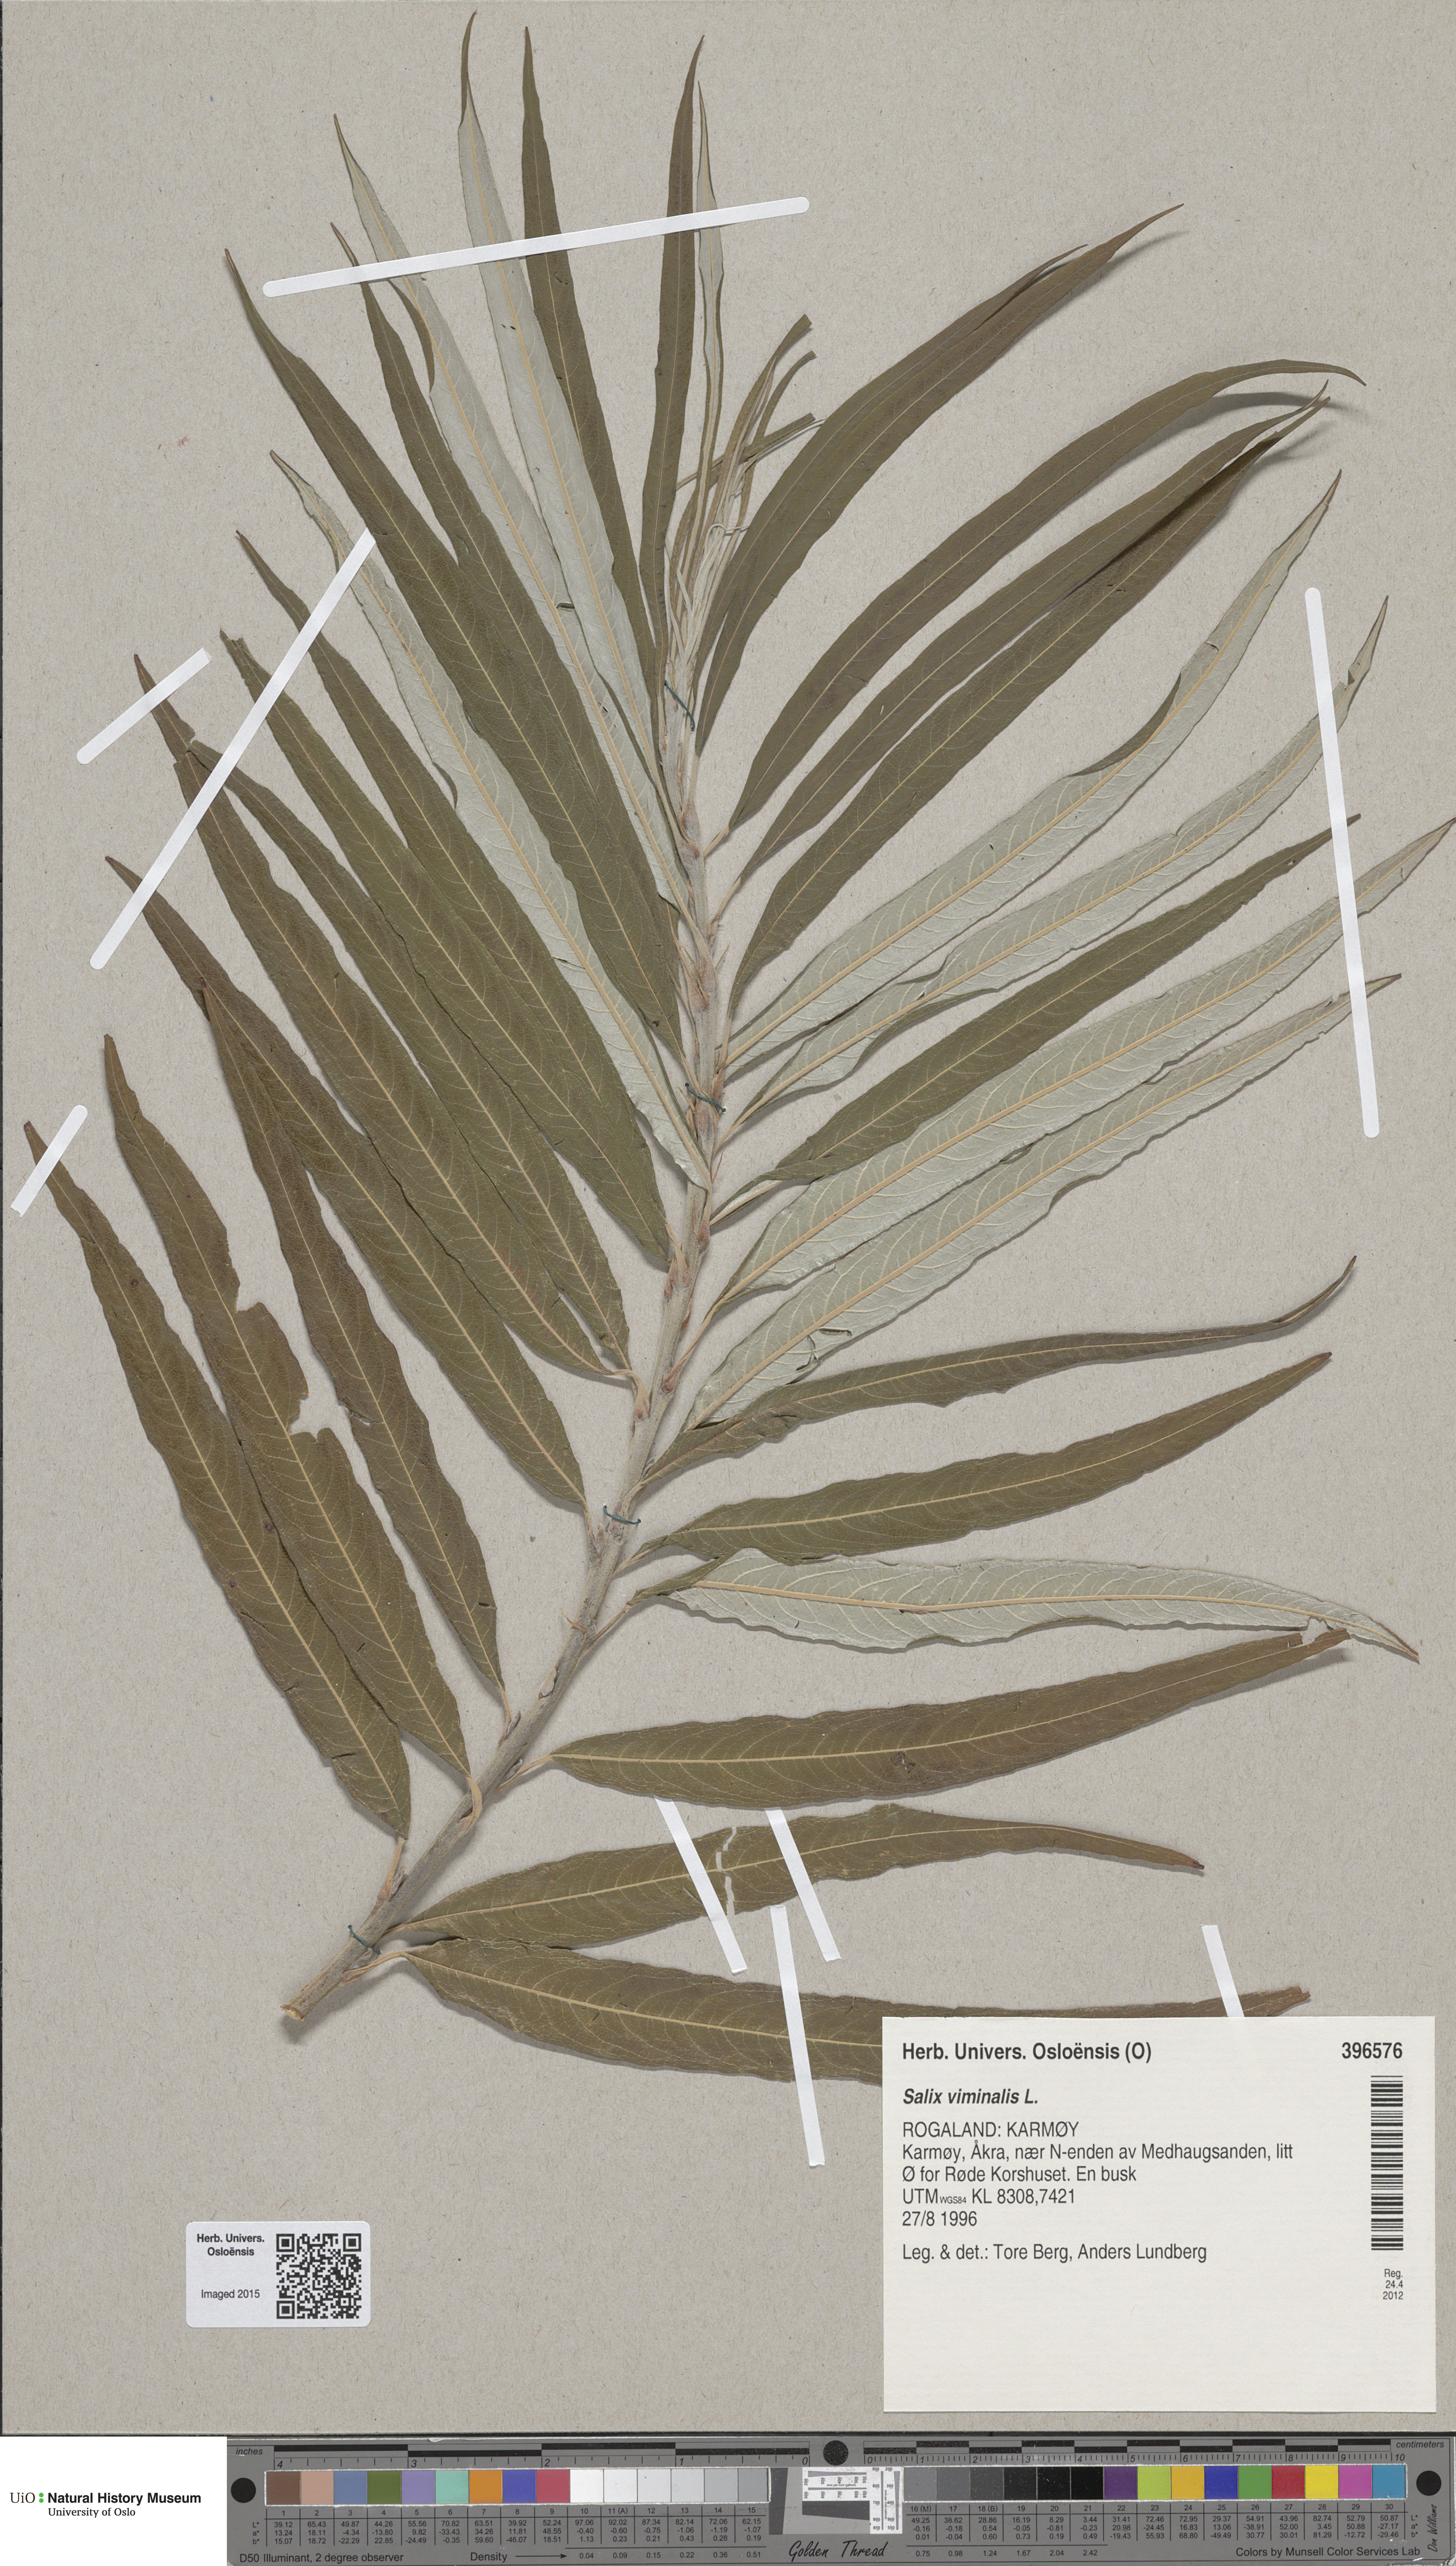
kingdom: Plantae
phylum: Tracheophyta
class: Magnoliopsida
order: Malpighiales
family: Salicaceae
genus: Salix
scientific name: Salix viminalis
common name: Osier
